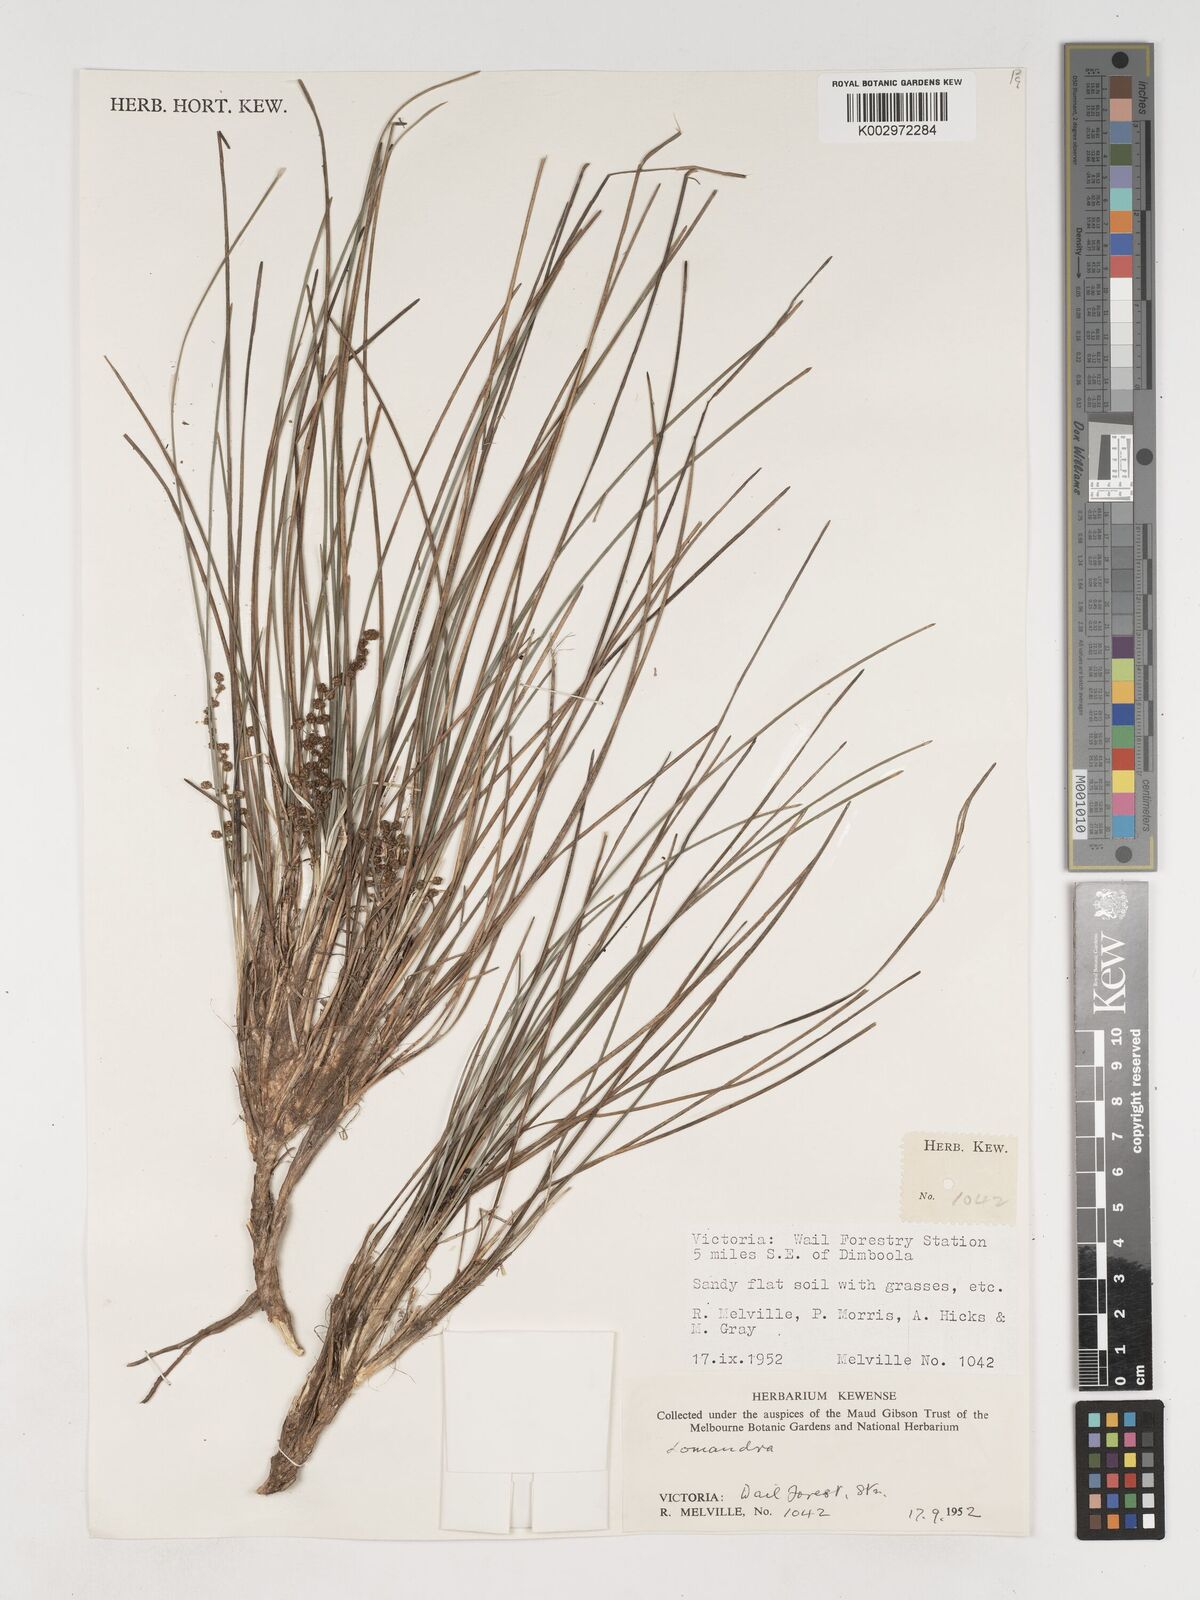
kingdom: Plantae
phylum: Tracheophyta
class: Liliopsida
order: Asparagales
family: Asparagaceae
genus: Lomandra
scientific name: Lomandra
